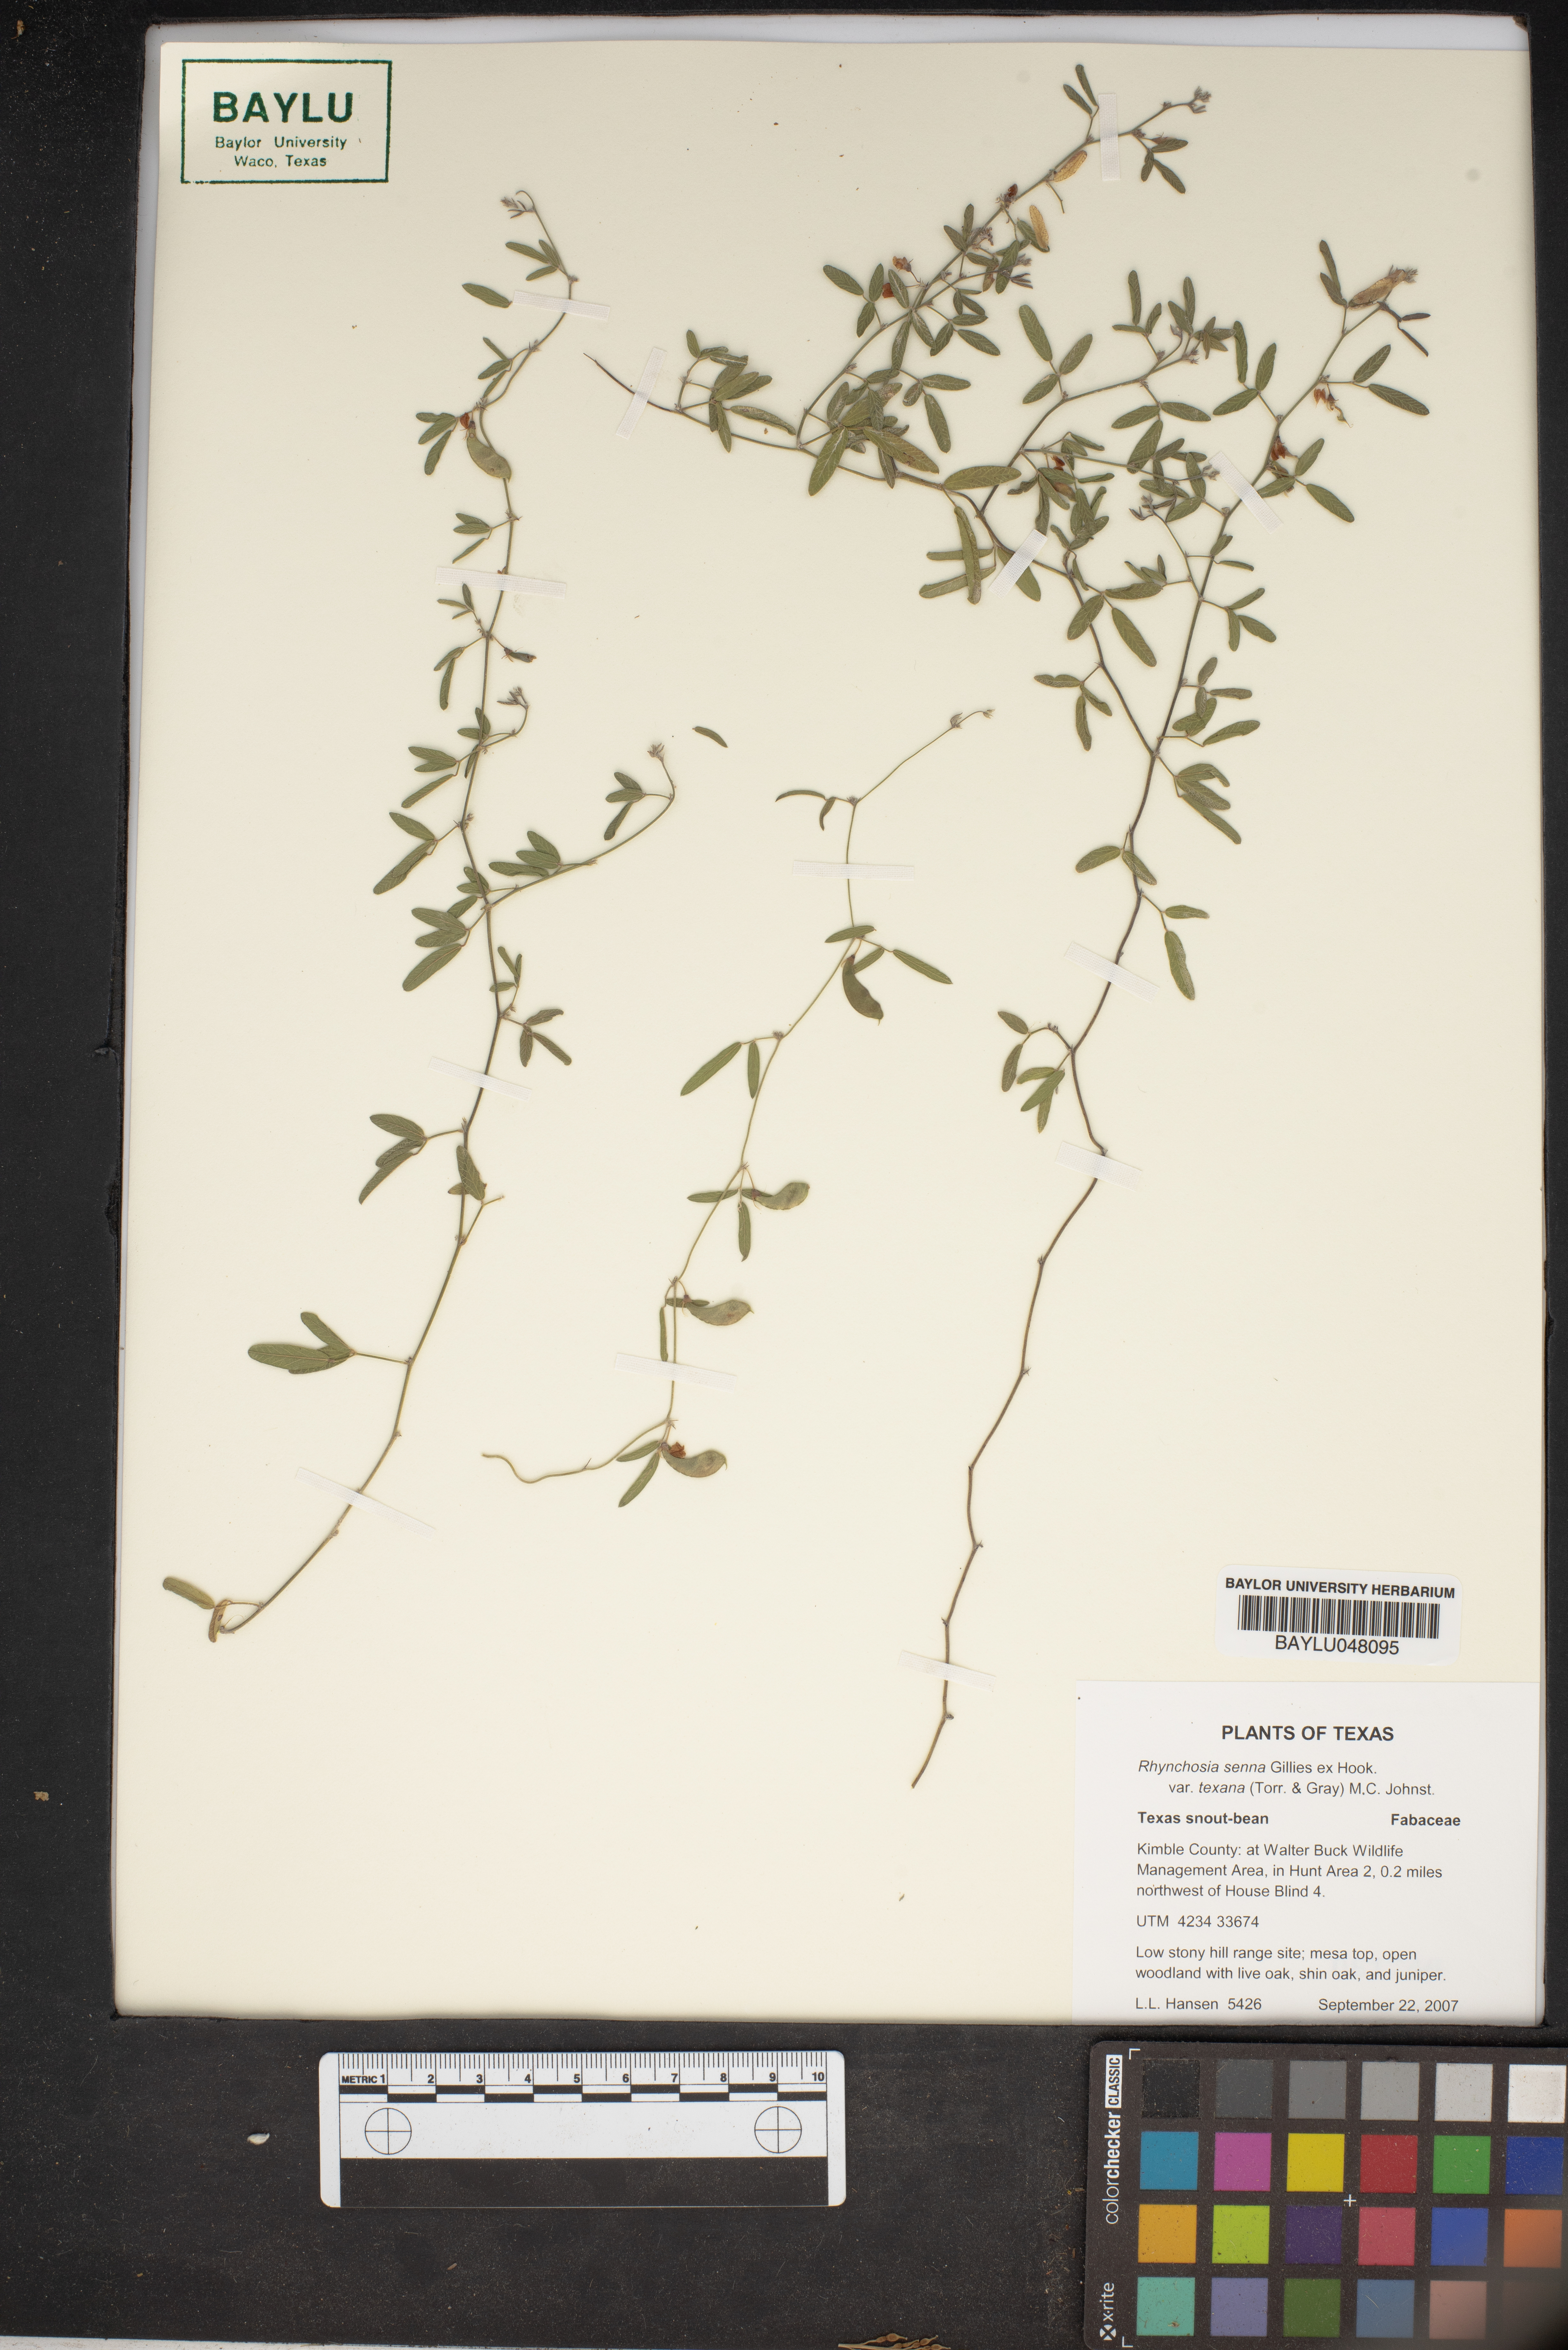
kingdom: Plantae
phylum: Tracheophyta
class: Magnoliopsida
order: Fabales
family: Fabaceae
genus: Rhynchosia
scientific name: Rhynchosia senna
